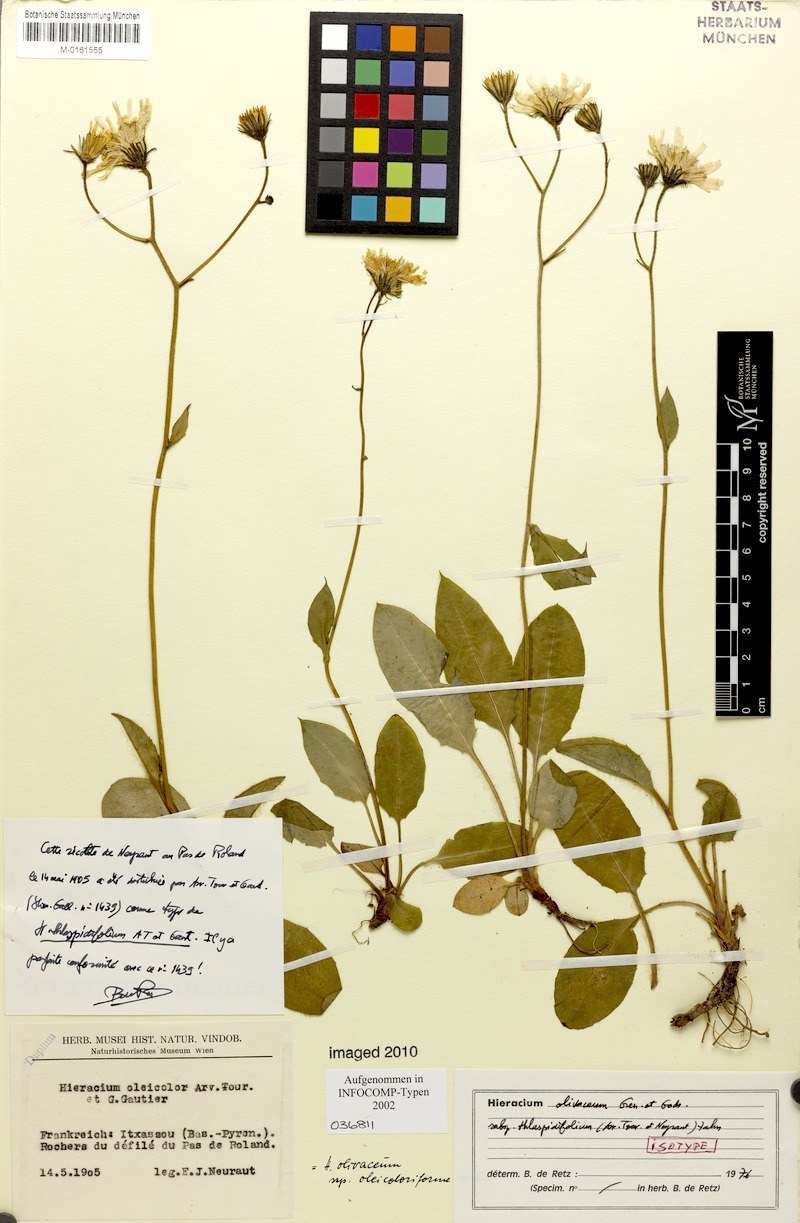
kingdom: Plantae
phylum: Tracheophyta
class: Magnoliopsida
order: Asterales
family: Asteraceae
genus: Hieracium
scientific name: Hieracium olivaceum
